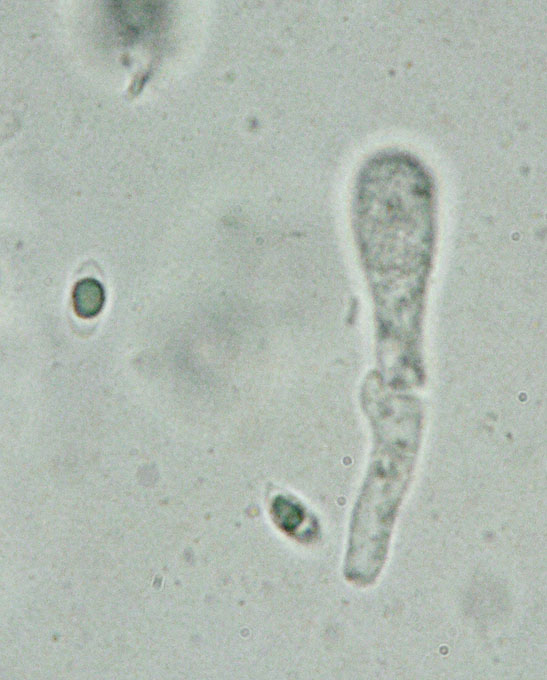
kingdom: Fungi
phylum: Basidiomycota
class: Agaricomycetes
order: Polyporales
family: Polyporaceae
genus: Picipes
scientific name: Picipes tubaeformis
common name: trompet-stilkporesvamp
